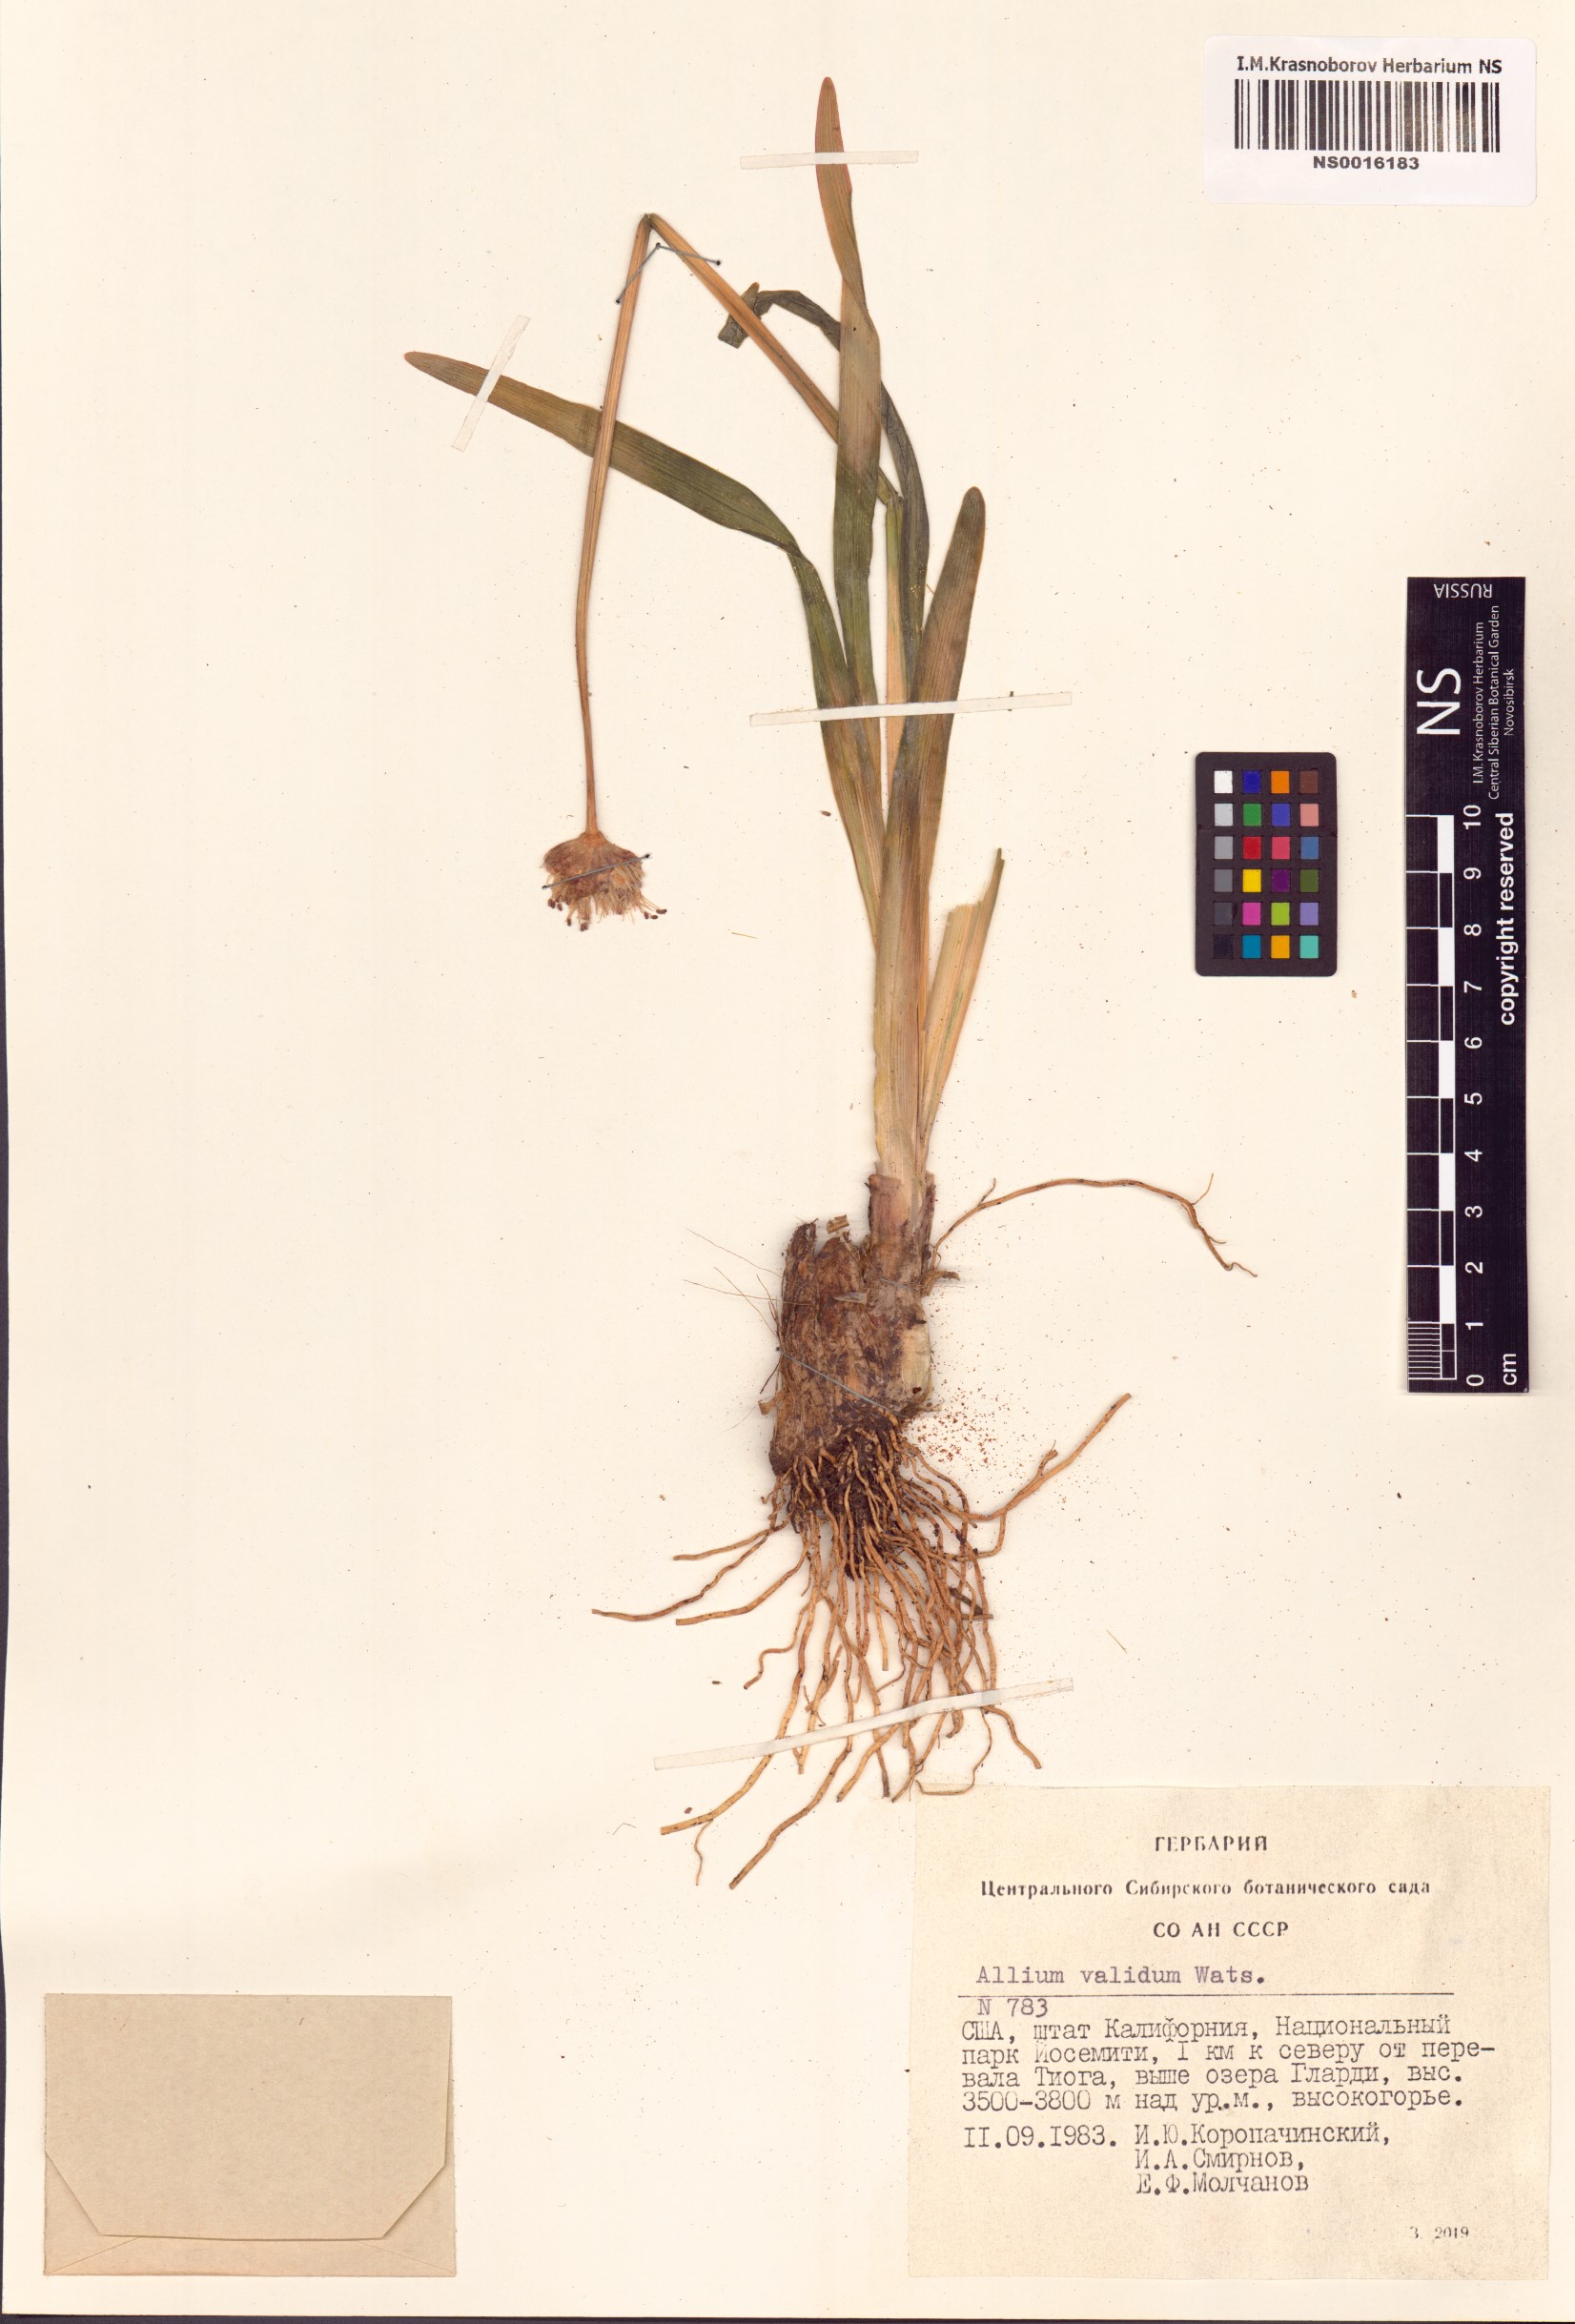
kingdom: Plantae
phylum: Tracheophyta
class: Liliopsida
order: Asparagales
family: Amaryllidaceae
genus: Allium
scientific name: Allium validum
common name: Pacific mountain onion
